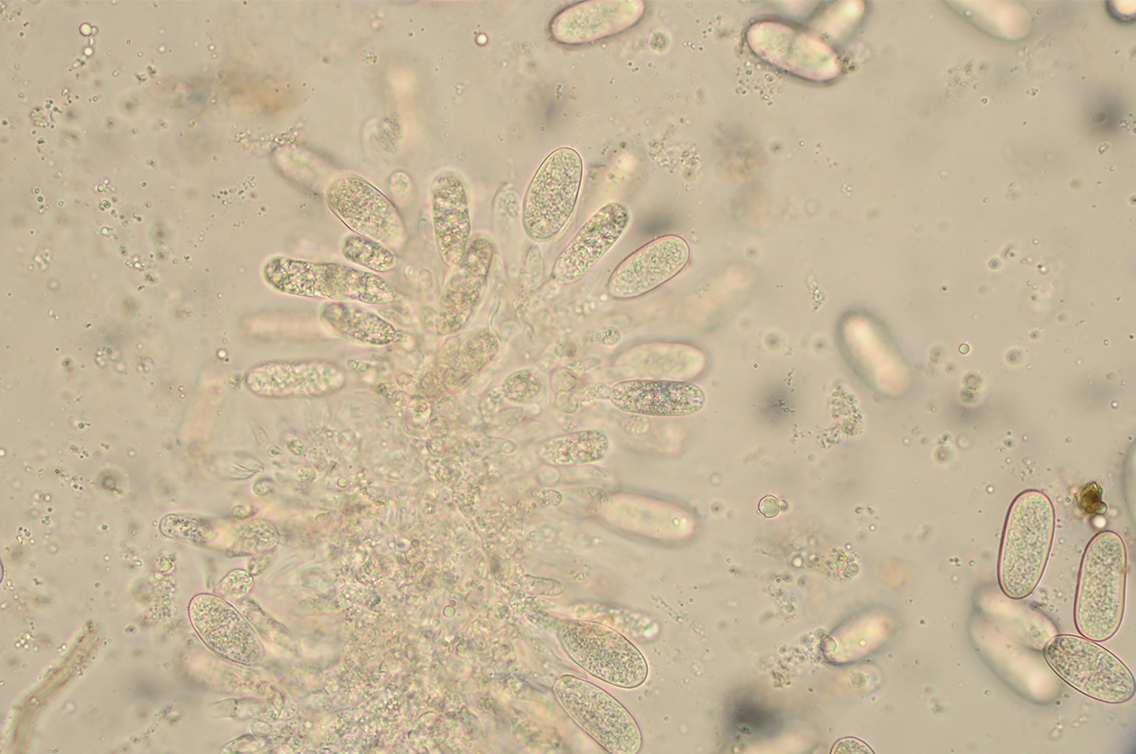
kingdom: Fungi
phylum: Ascomycota
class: Dothideomycetes
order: Botryosphaeriales
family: Botryosphaeriaceae
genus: Botryosphaeria
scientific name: Botryosphaeria stevensii
